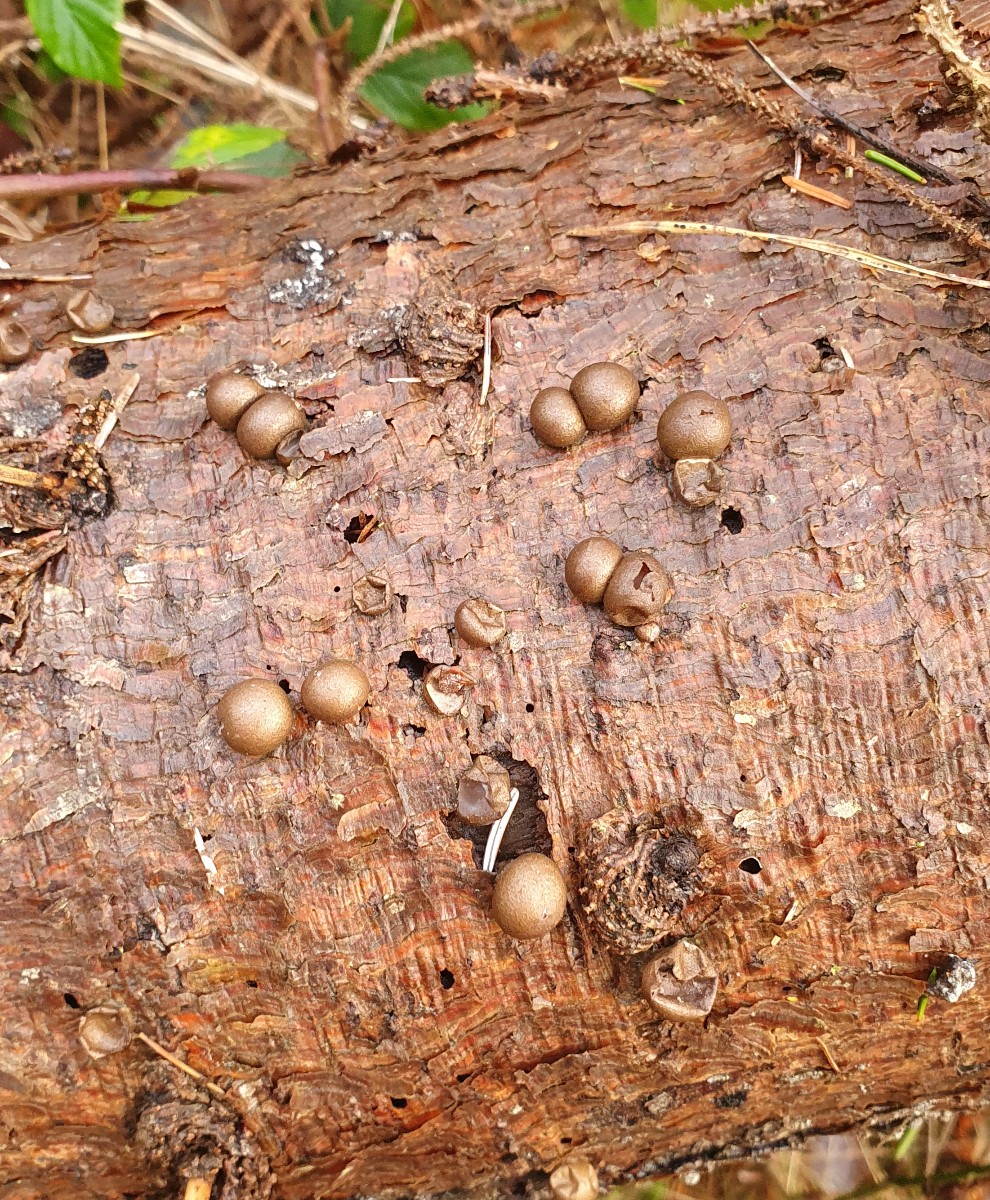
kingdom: Protozoa
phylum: Mycetozoa
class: Myxomycetes
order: Cribrariales
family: Tubiferaceae
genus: Lycogala
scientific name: Lycogala epidendrum
